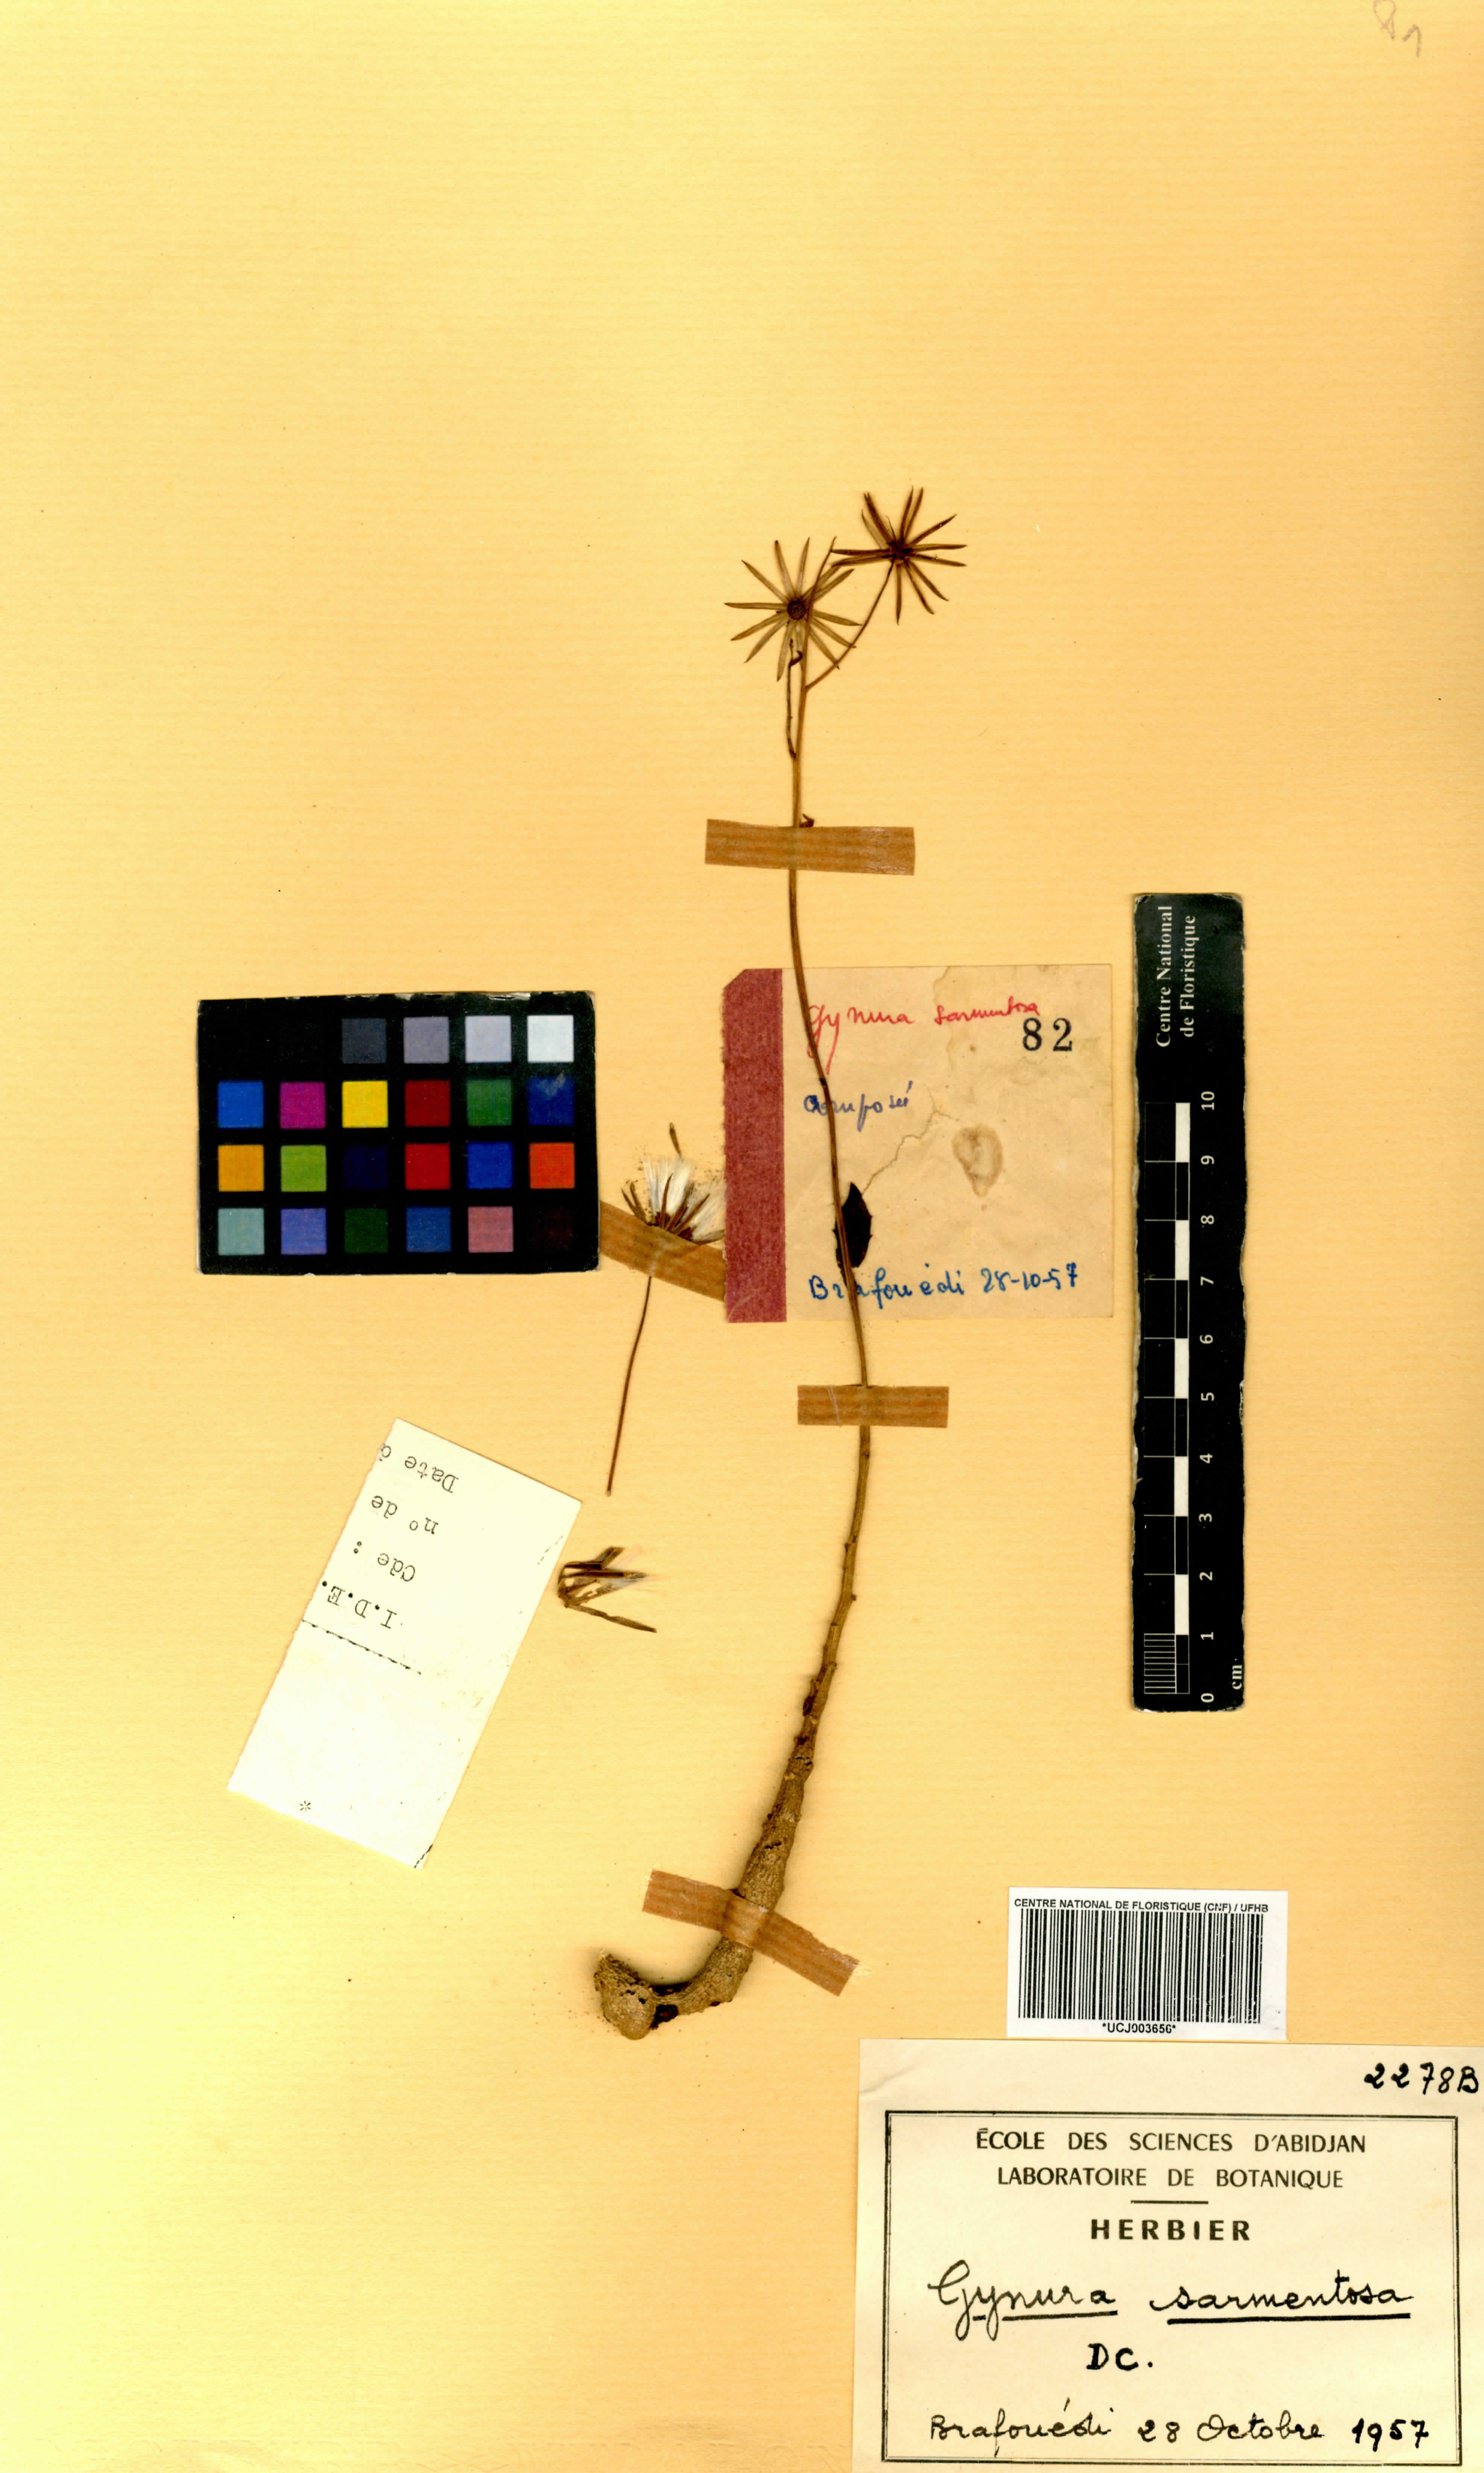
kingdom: Plantae
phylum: Tracheophyta
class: Magnoliopsida
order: Asterales
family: Asteraceae
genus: Gynura
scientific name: Gynura procumbens
